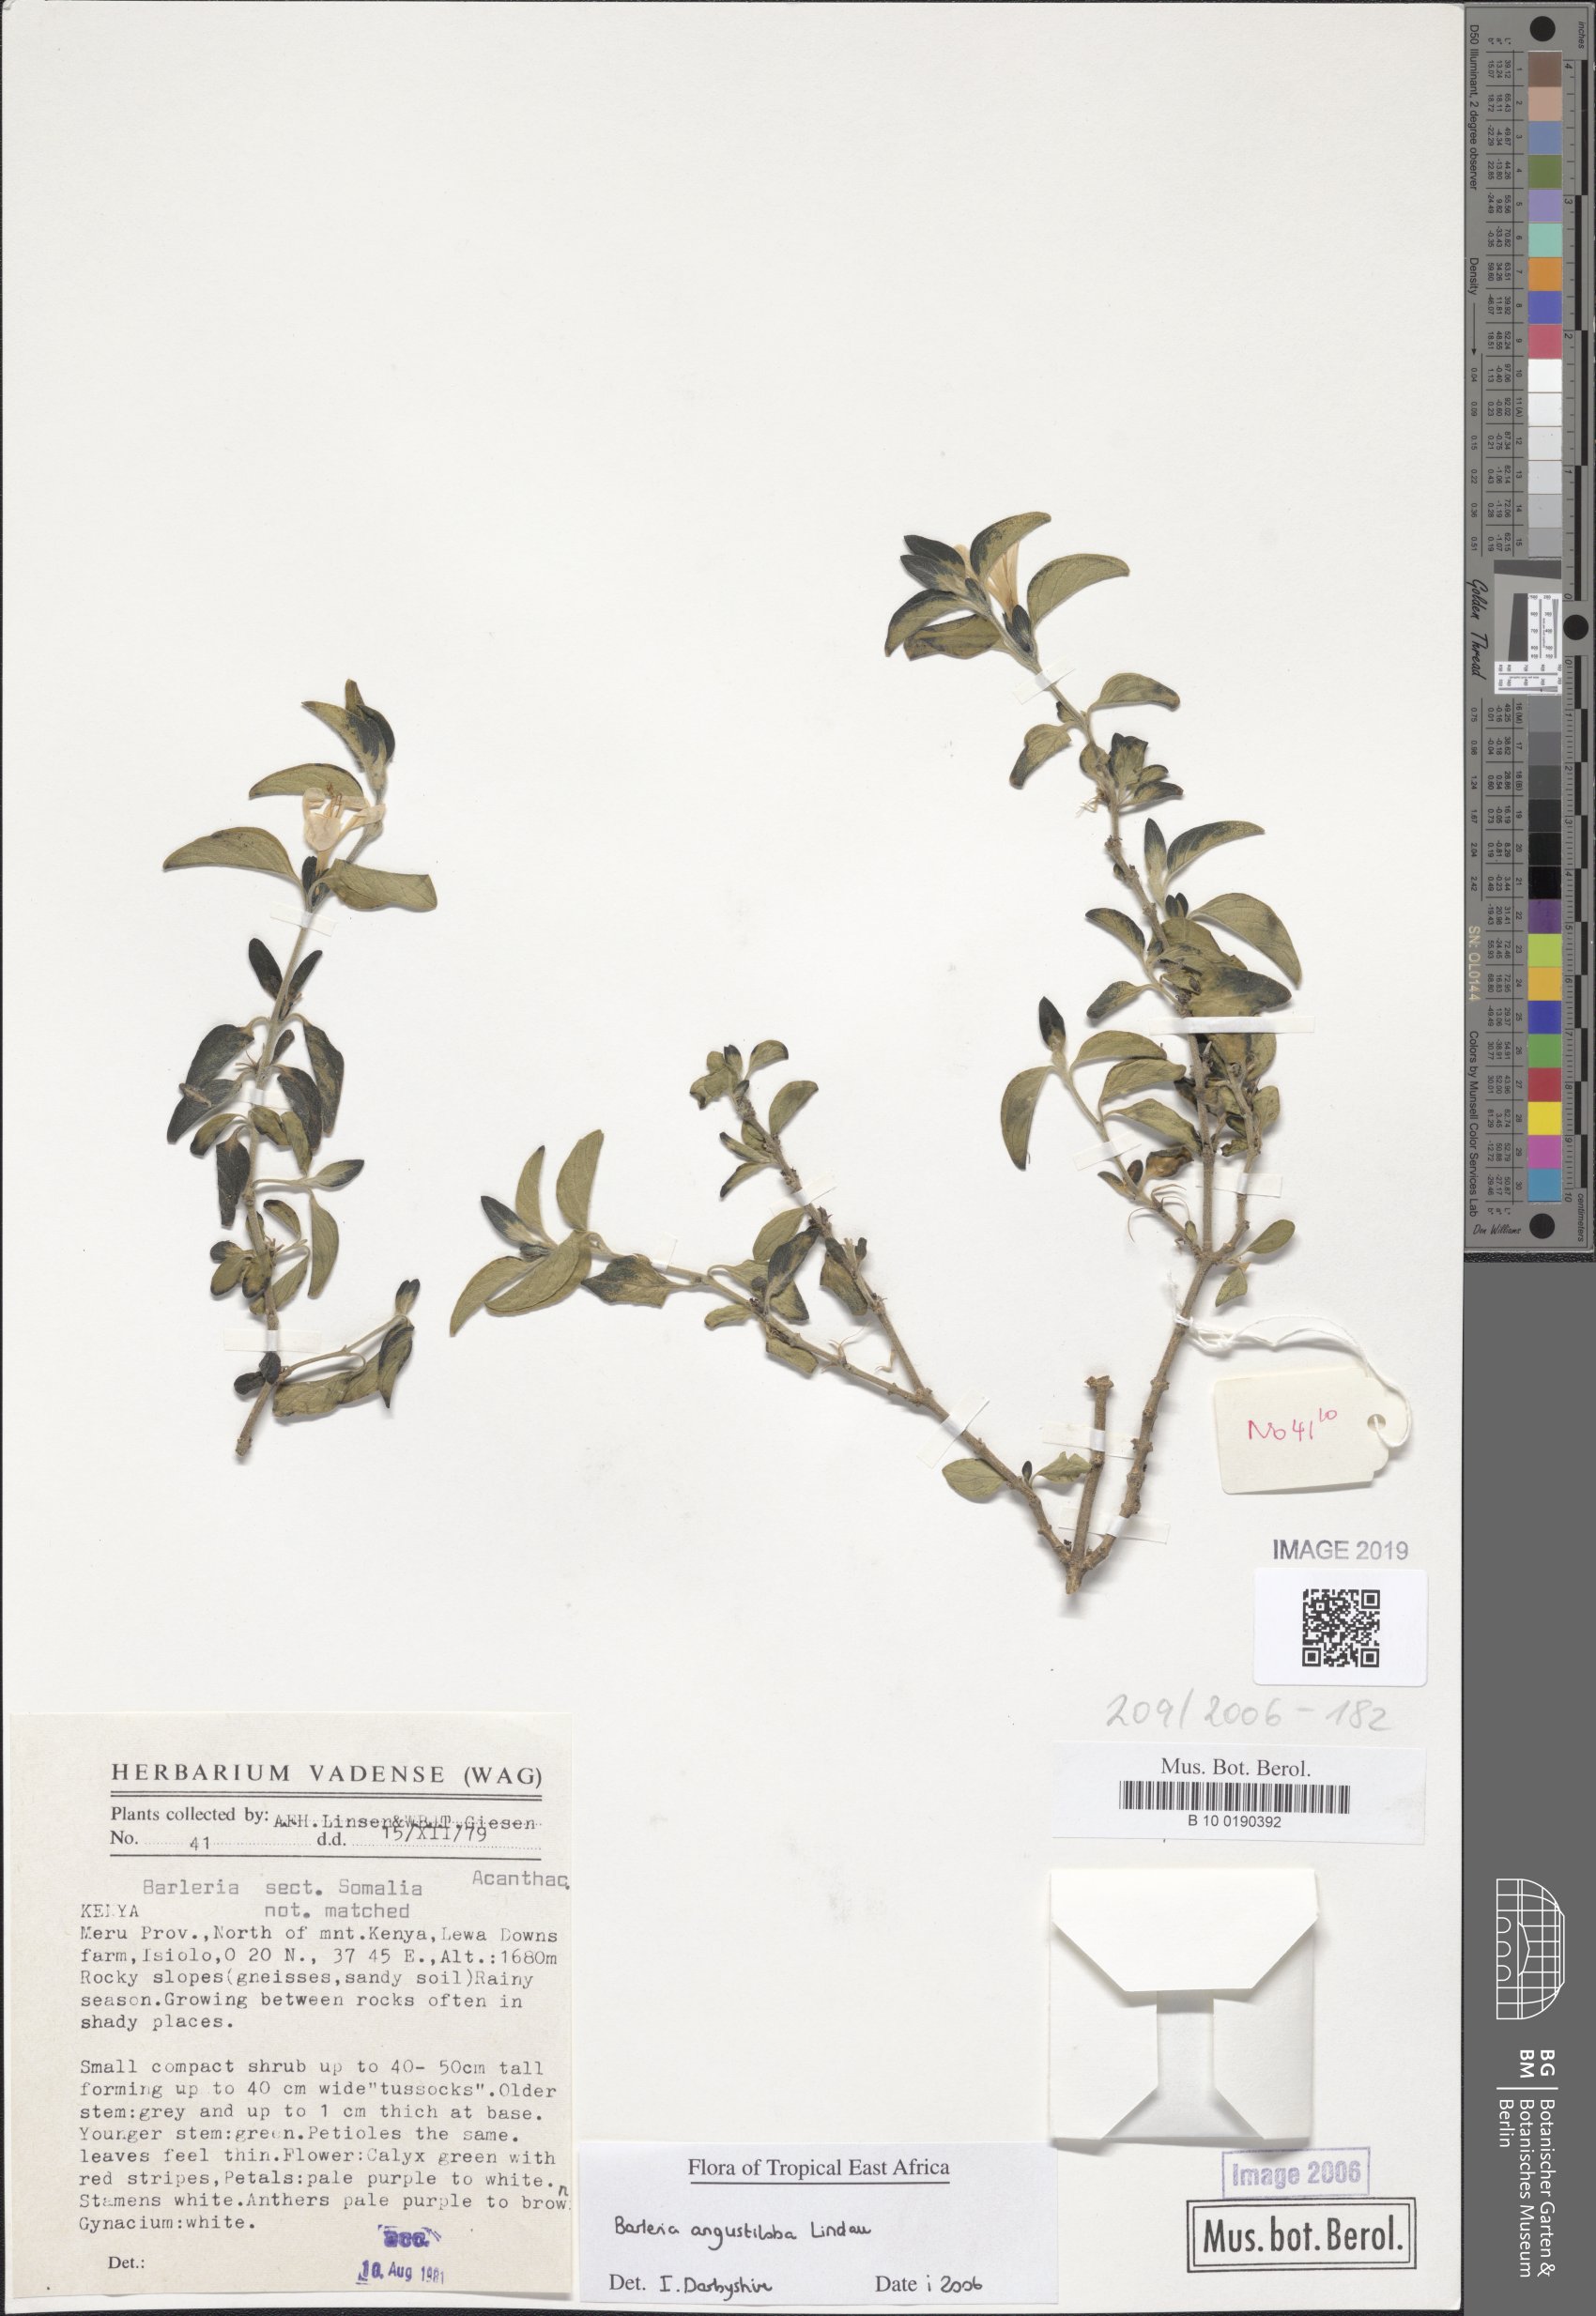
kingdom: Plantae
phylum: Tracheophyta
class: Magnoliopsida
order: Lamiales
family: Acanthaceae
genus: Barleria
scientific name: Barleria
